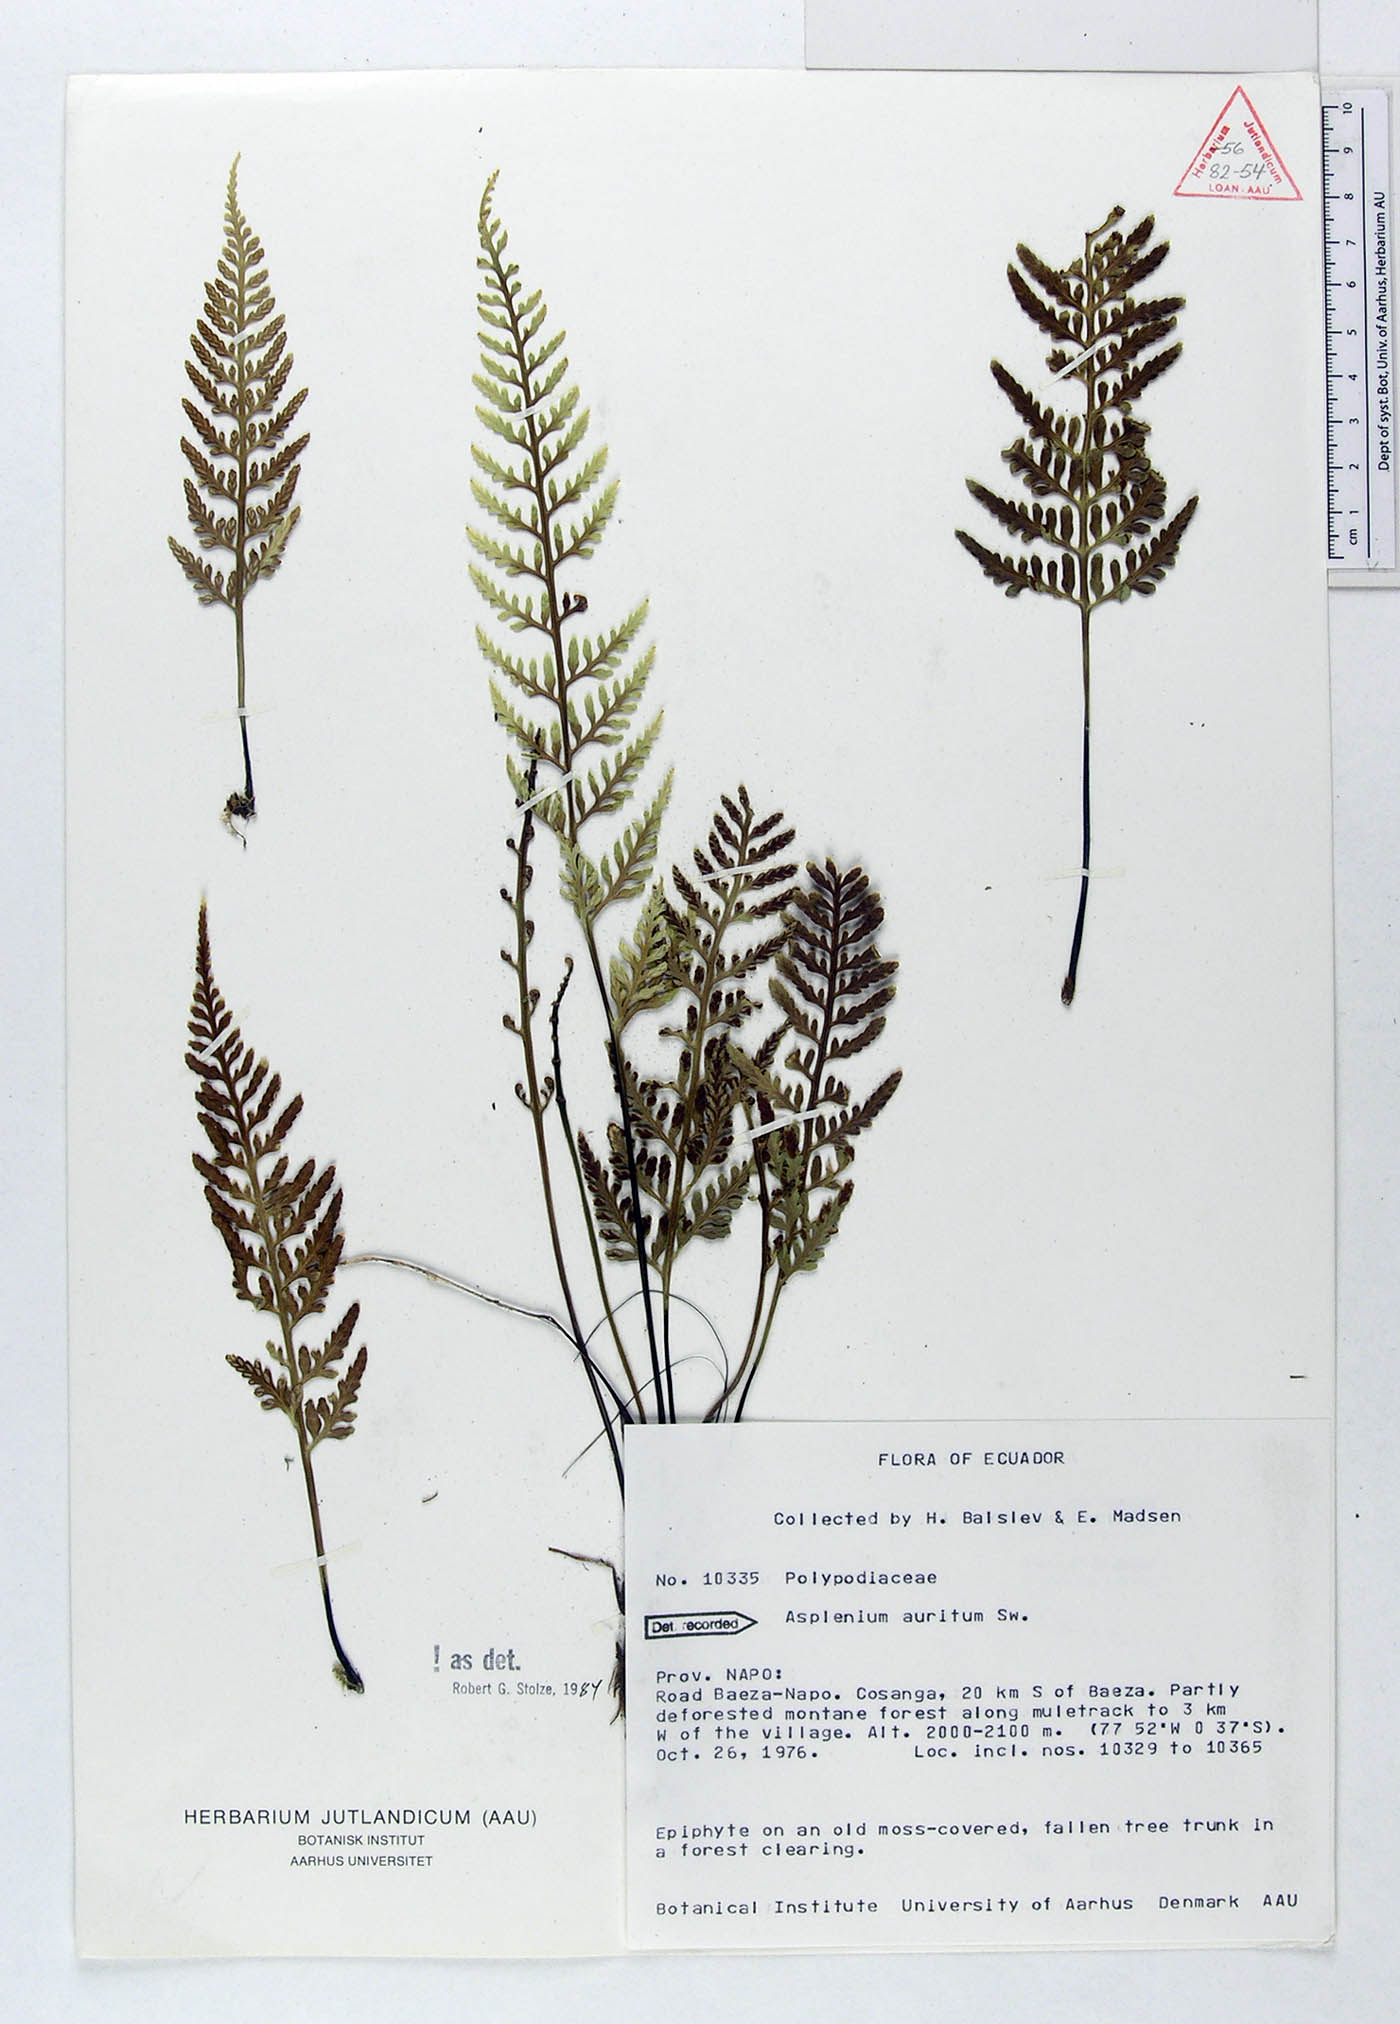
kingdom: Plantae
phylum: Tracheophyta
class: Polypodiopsida
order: Polypodiales
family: Aspleniaceae
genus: Asplenium
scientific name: Asplenium auritum
